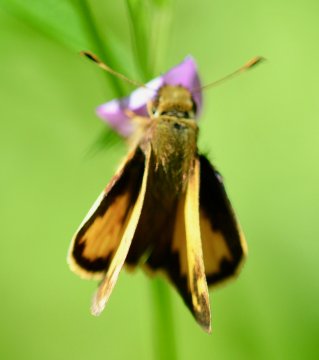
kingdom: Animalia
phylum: Arthropoda
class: Insecta
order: Lepidoptera
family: Hesperiidae
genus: Lon
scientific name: Lon zabulon
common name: Zabulon Skipper
